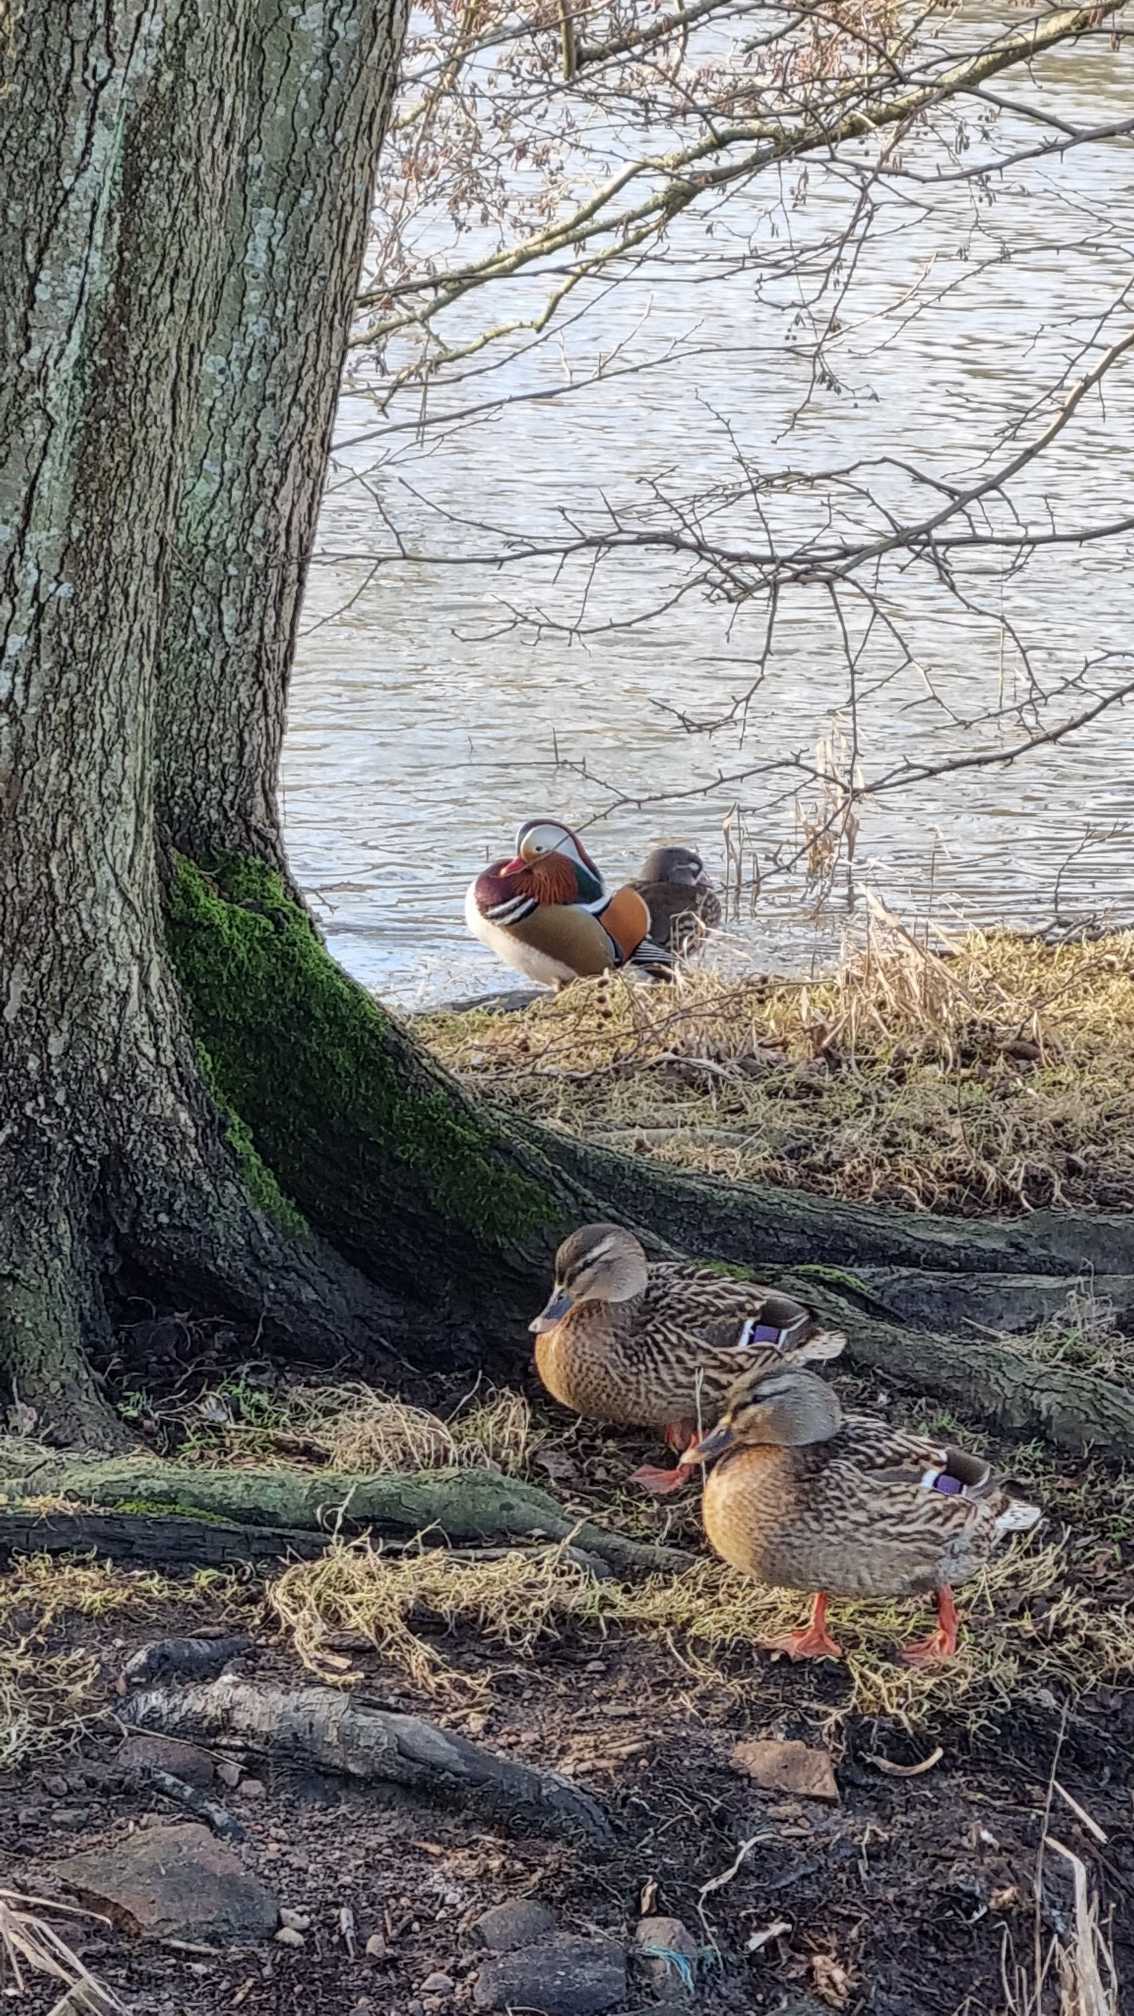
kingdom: Animalia
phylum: Chordata
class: Aves
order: Anseriformes
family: Anatidae
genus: Aix
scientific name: Aix galericulata
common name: Mandarinand
